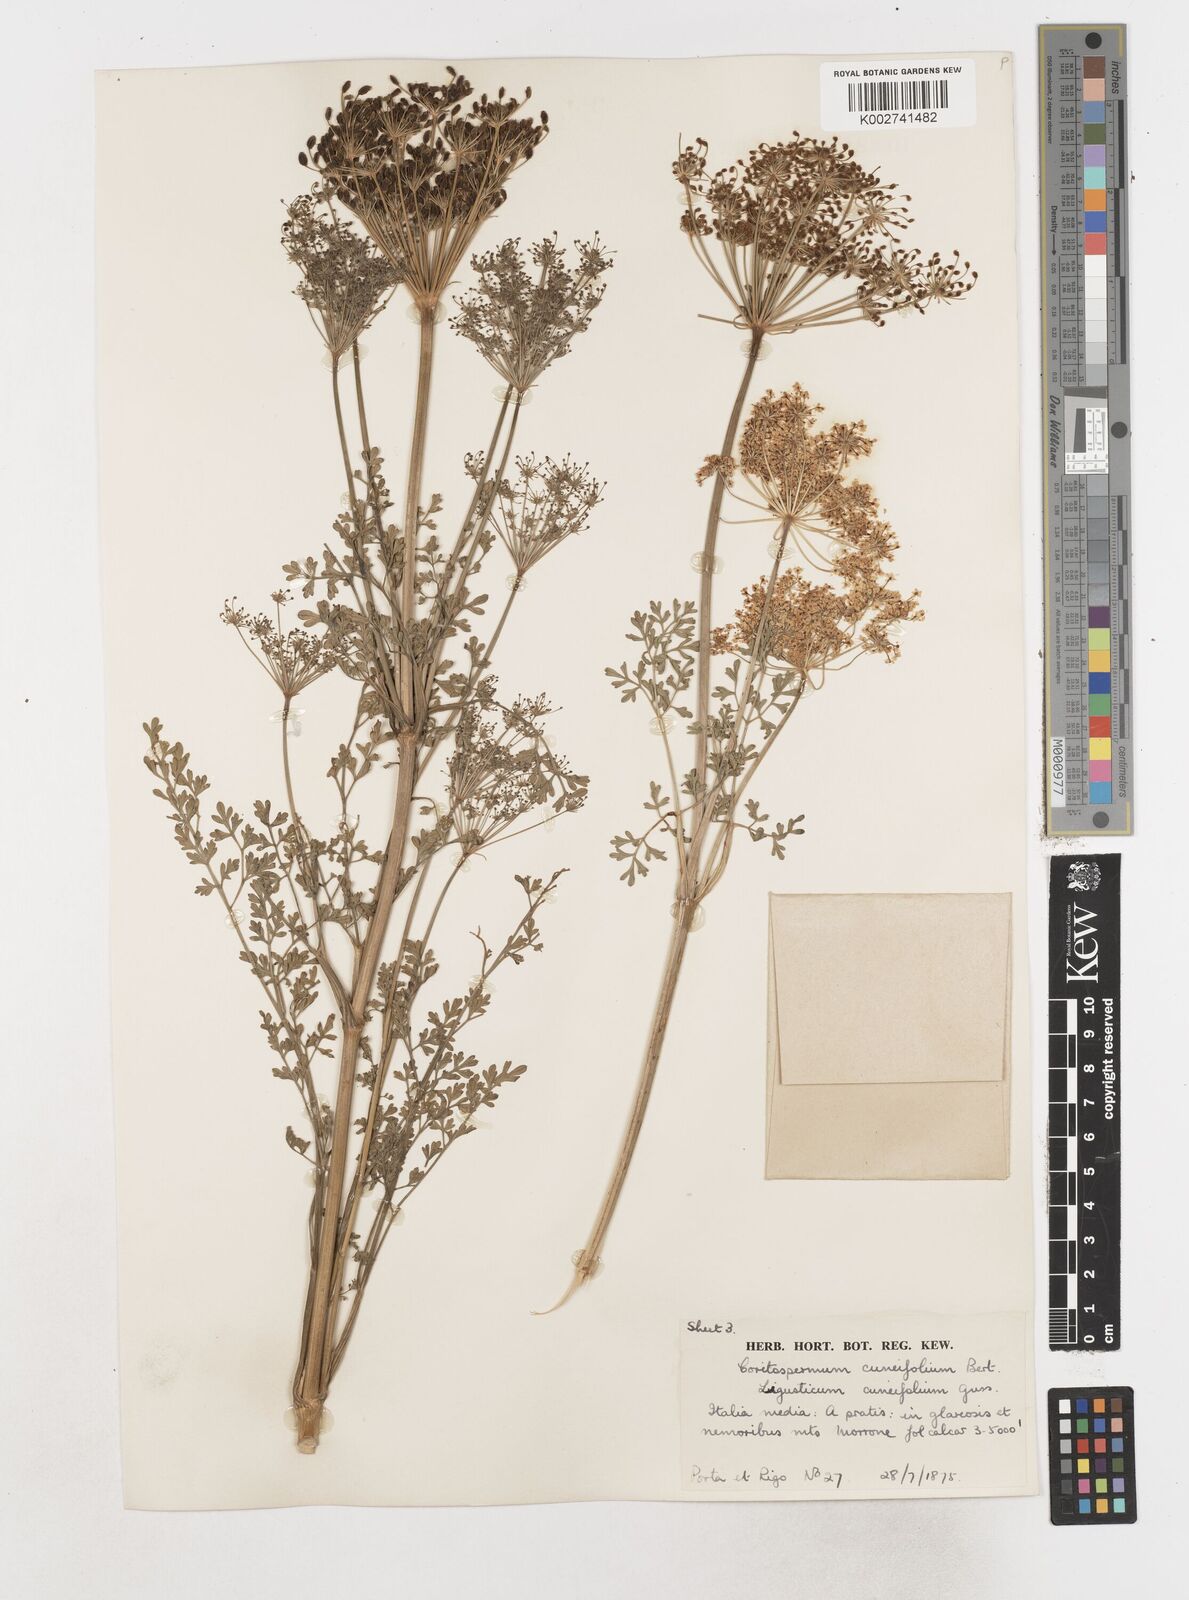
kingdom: Plantae
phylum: Tracheophyta
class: Magnoliopsida
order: Apiales
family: Apiaceae
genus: Coristospermum
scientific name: Coristospermum cuneifolium
